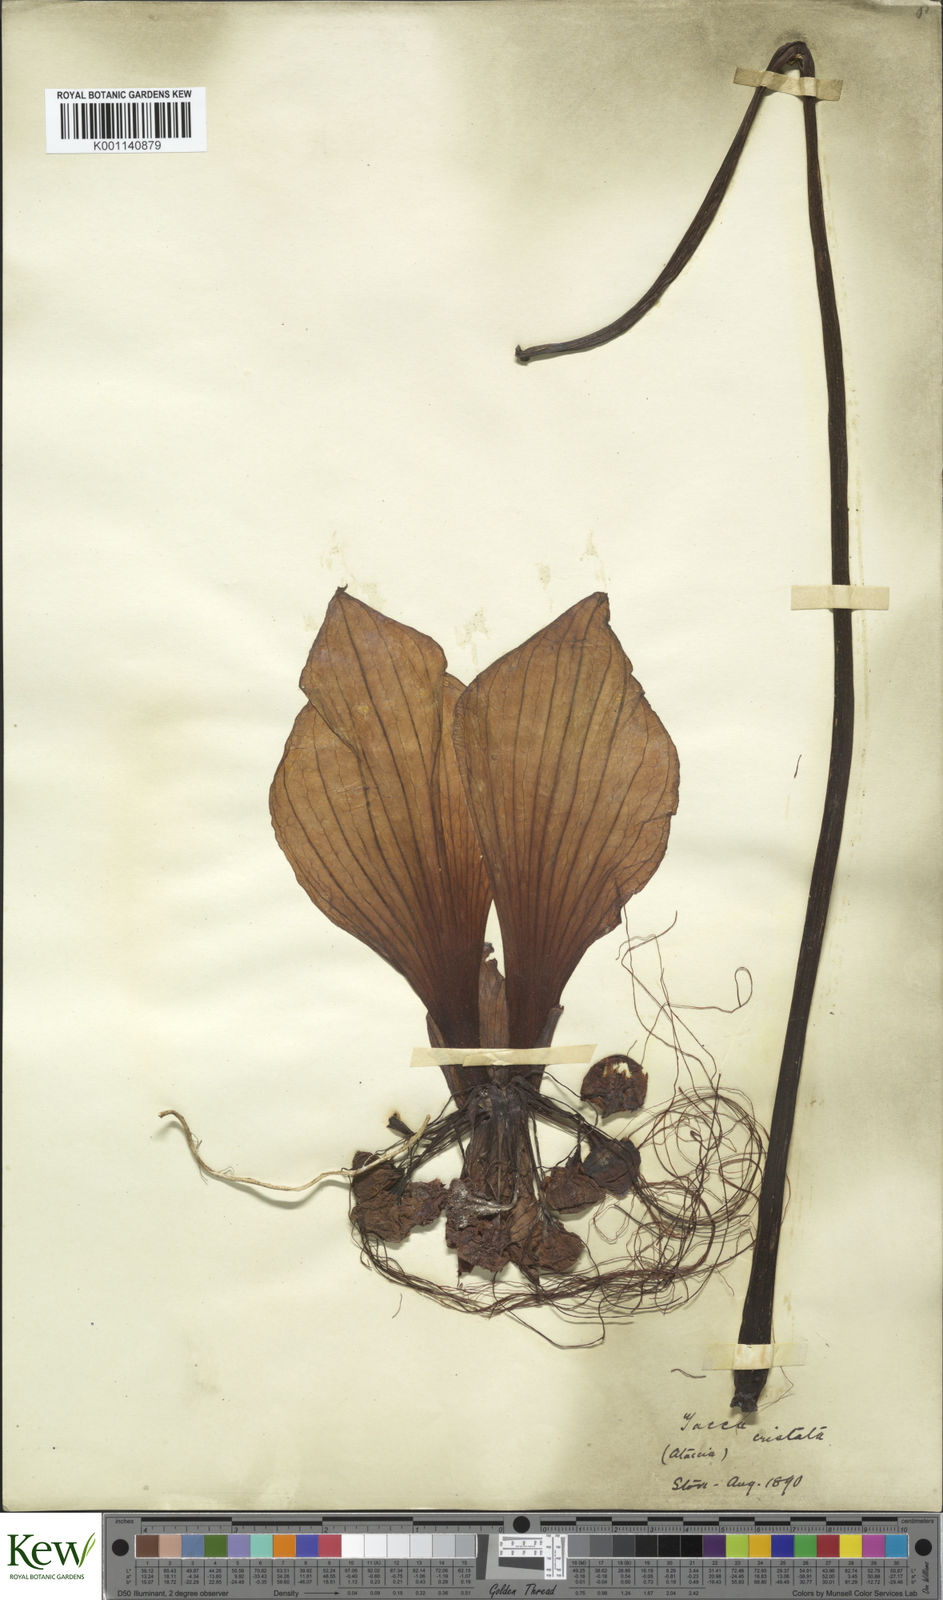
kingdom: Plantae
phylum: Tracheophyta
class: Liliopsida
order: Dioscoreales
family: Dioscoreaceae
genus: Tacca
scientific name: Tacca integrifolia
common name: Batplant
